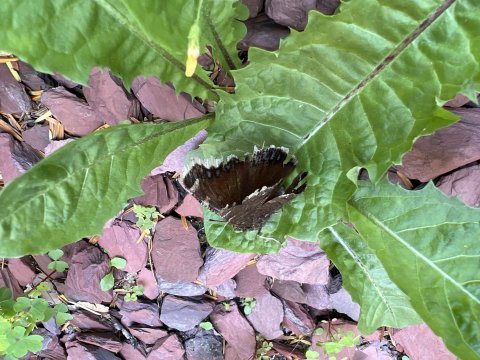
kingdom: Animalia
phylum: Arthropoda
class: Insecta
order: Lepidoptera
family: Nymphalidae
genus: Nymphalis
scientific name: Nymphalis antiopa
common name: Mourning Cloak
